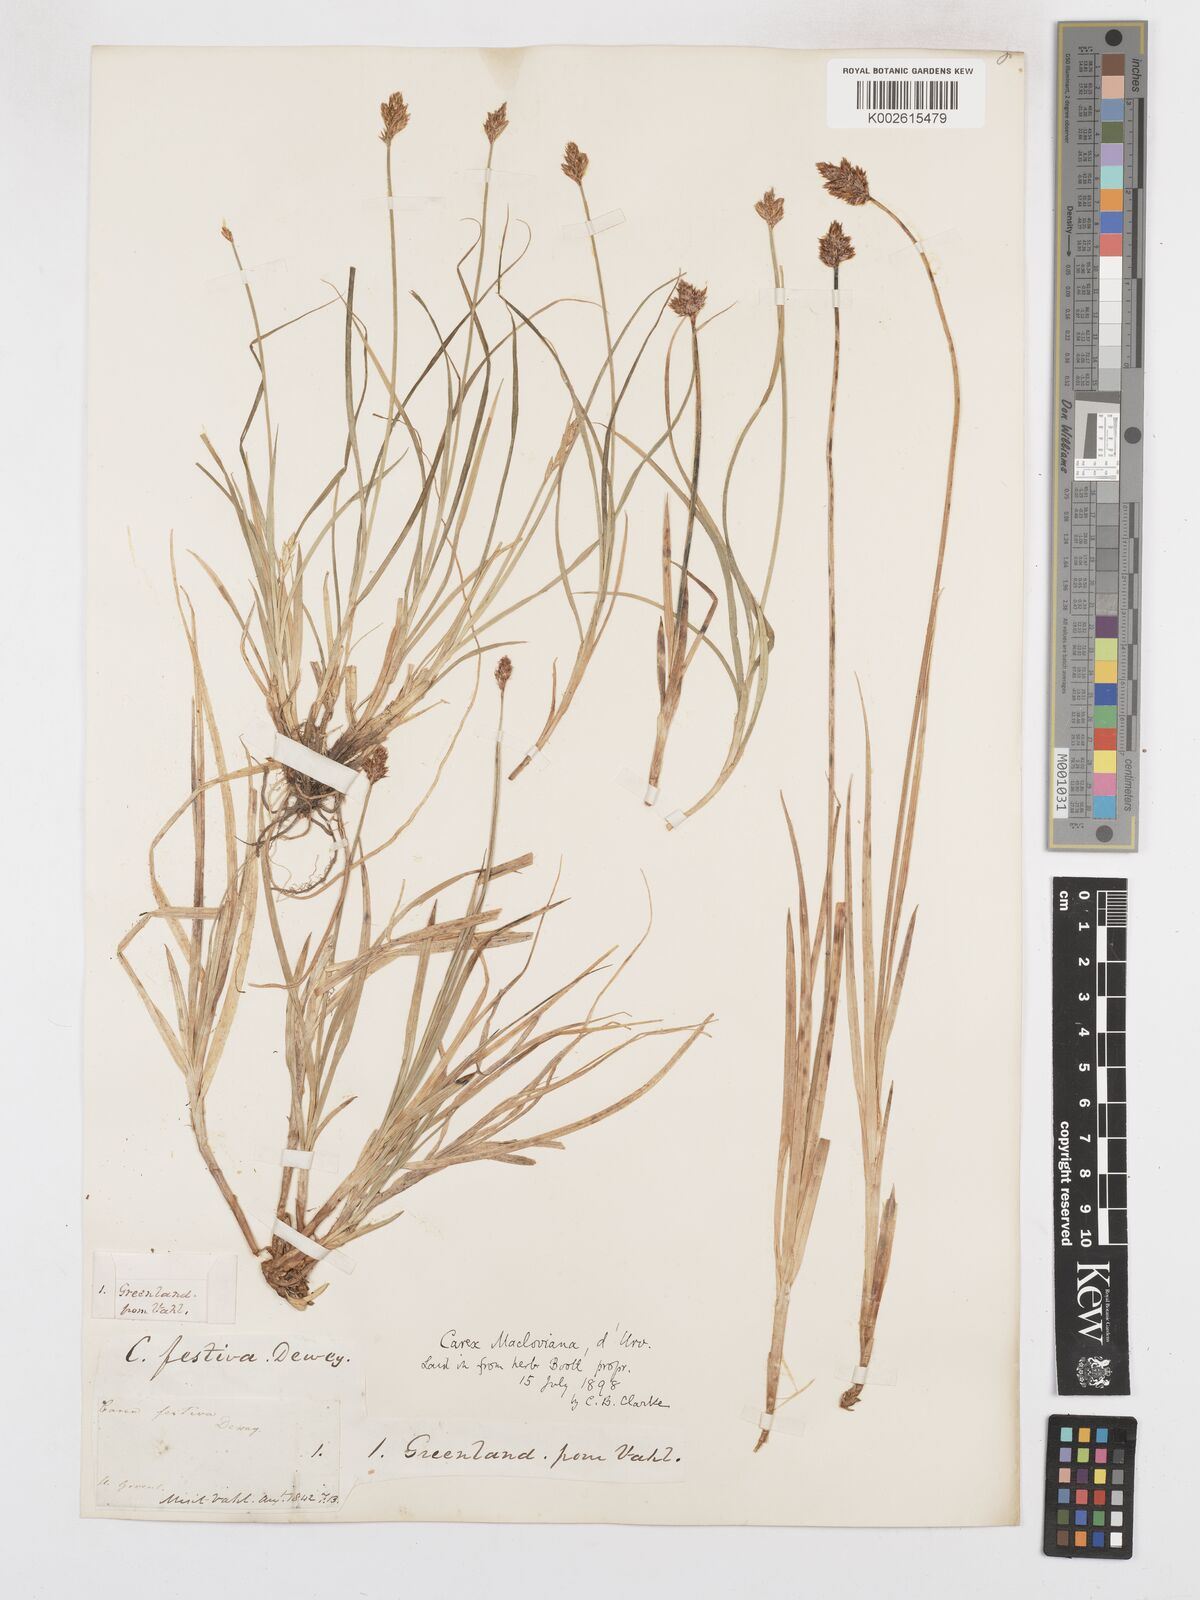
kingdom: Plantae
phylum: Tracheophyta
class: Liliopsida
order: Poales
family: Cyperaceae
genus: Carex
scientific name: Carex
